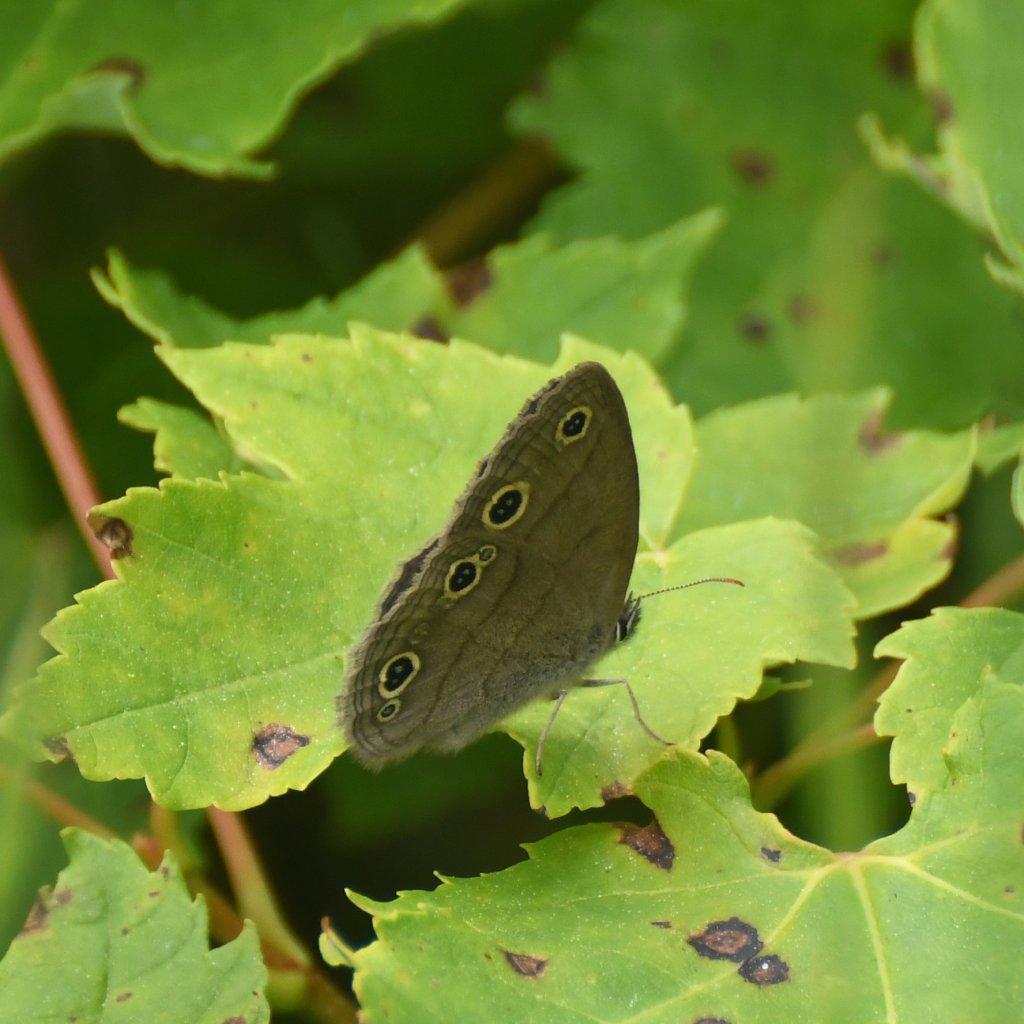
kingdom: Animalia
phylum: Arthropoda
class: Insecta
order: Lepidoptera
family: Nymphalidae
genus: Euptychia
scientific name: Euptychia cymela
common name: Little Wood Satyr
